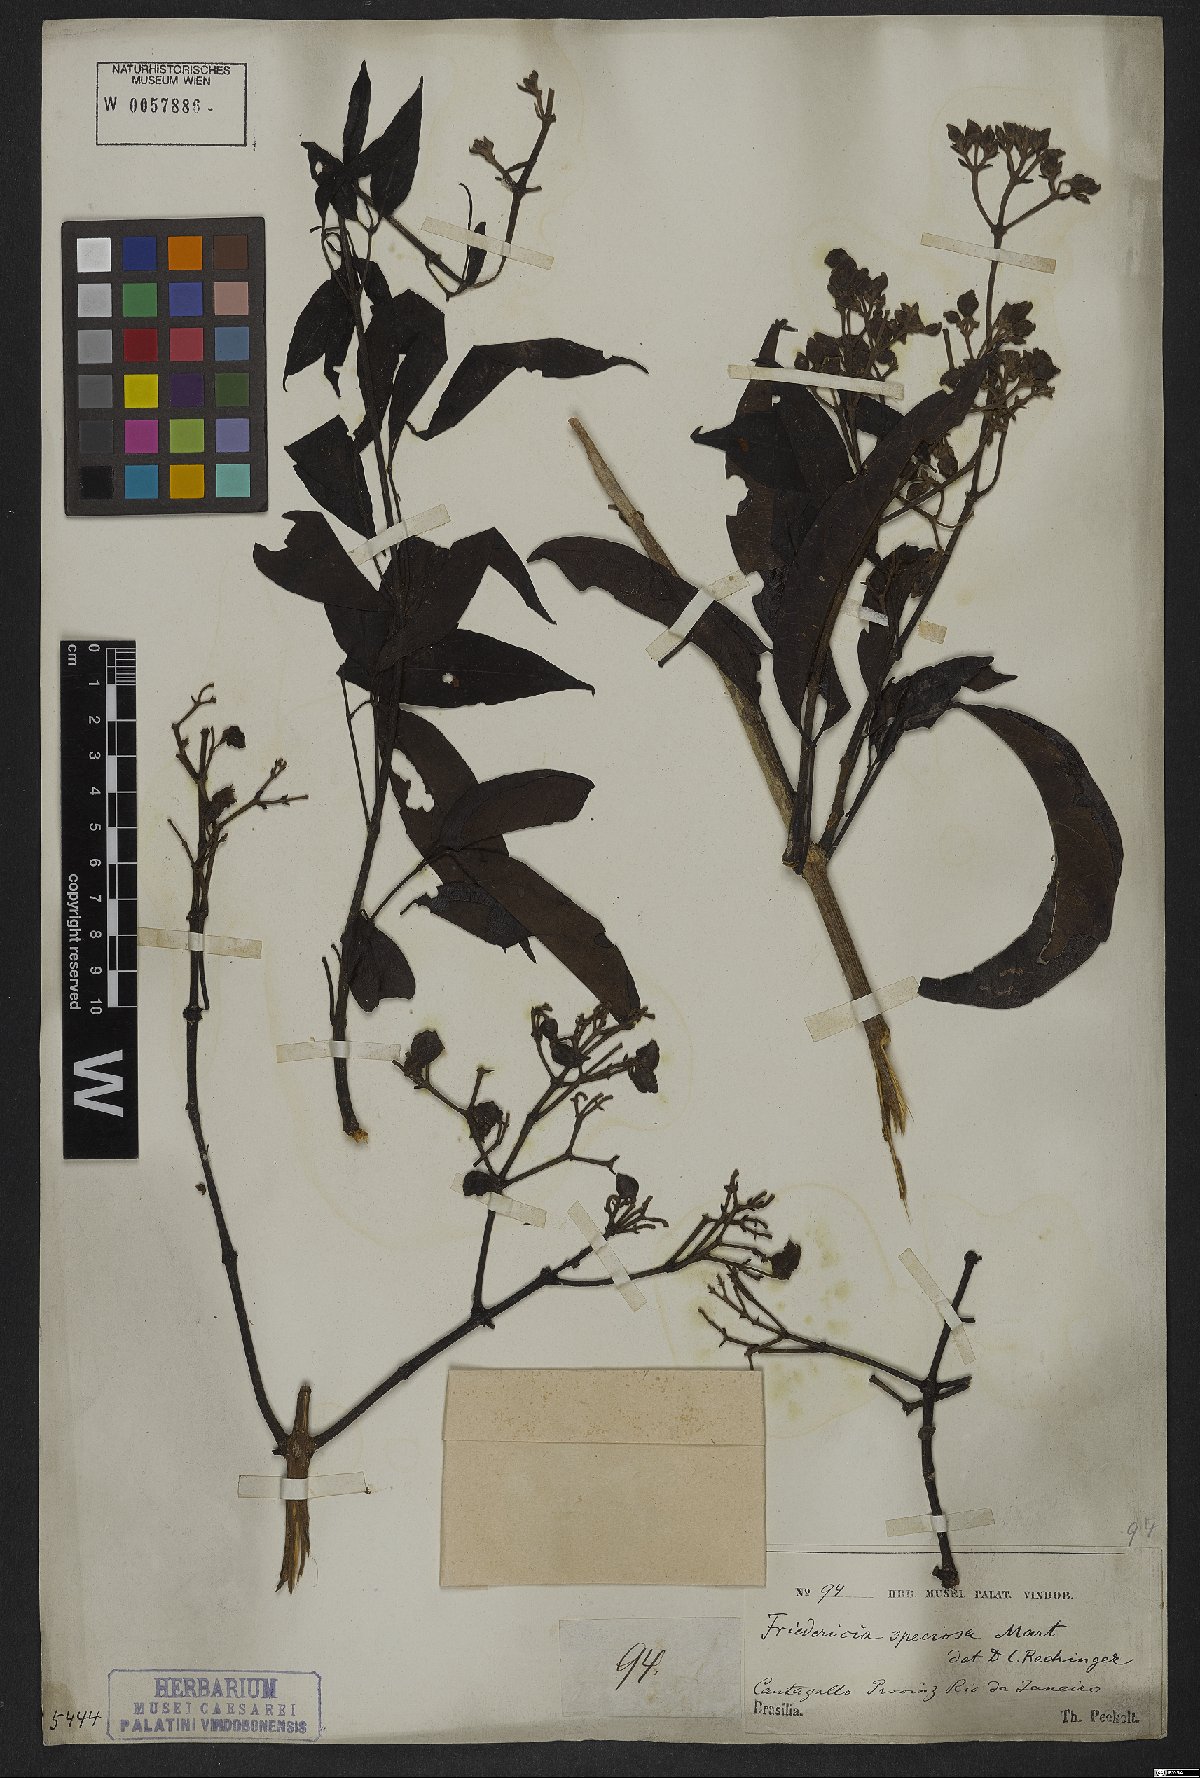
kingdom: Plantae
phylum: Tracheophyta
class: Magnoliopsida
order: Lamiales
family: Bignoniaceae
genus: Fridericia
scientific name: Fridericia speciosa
